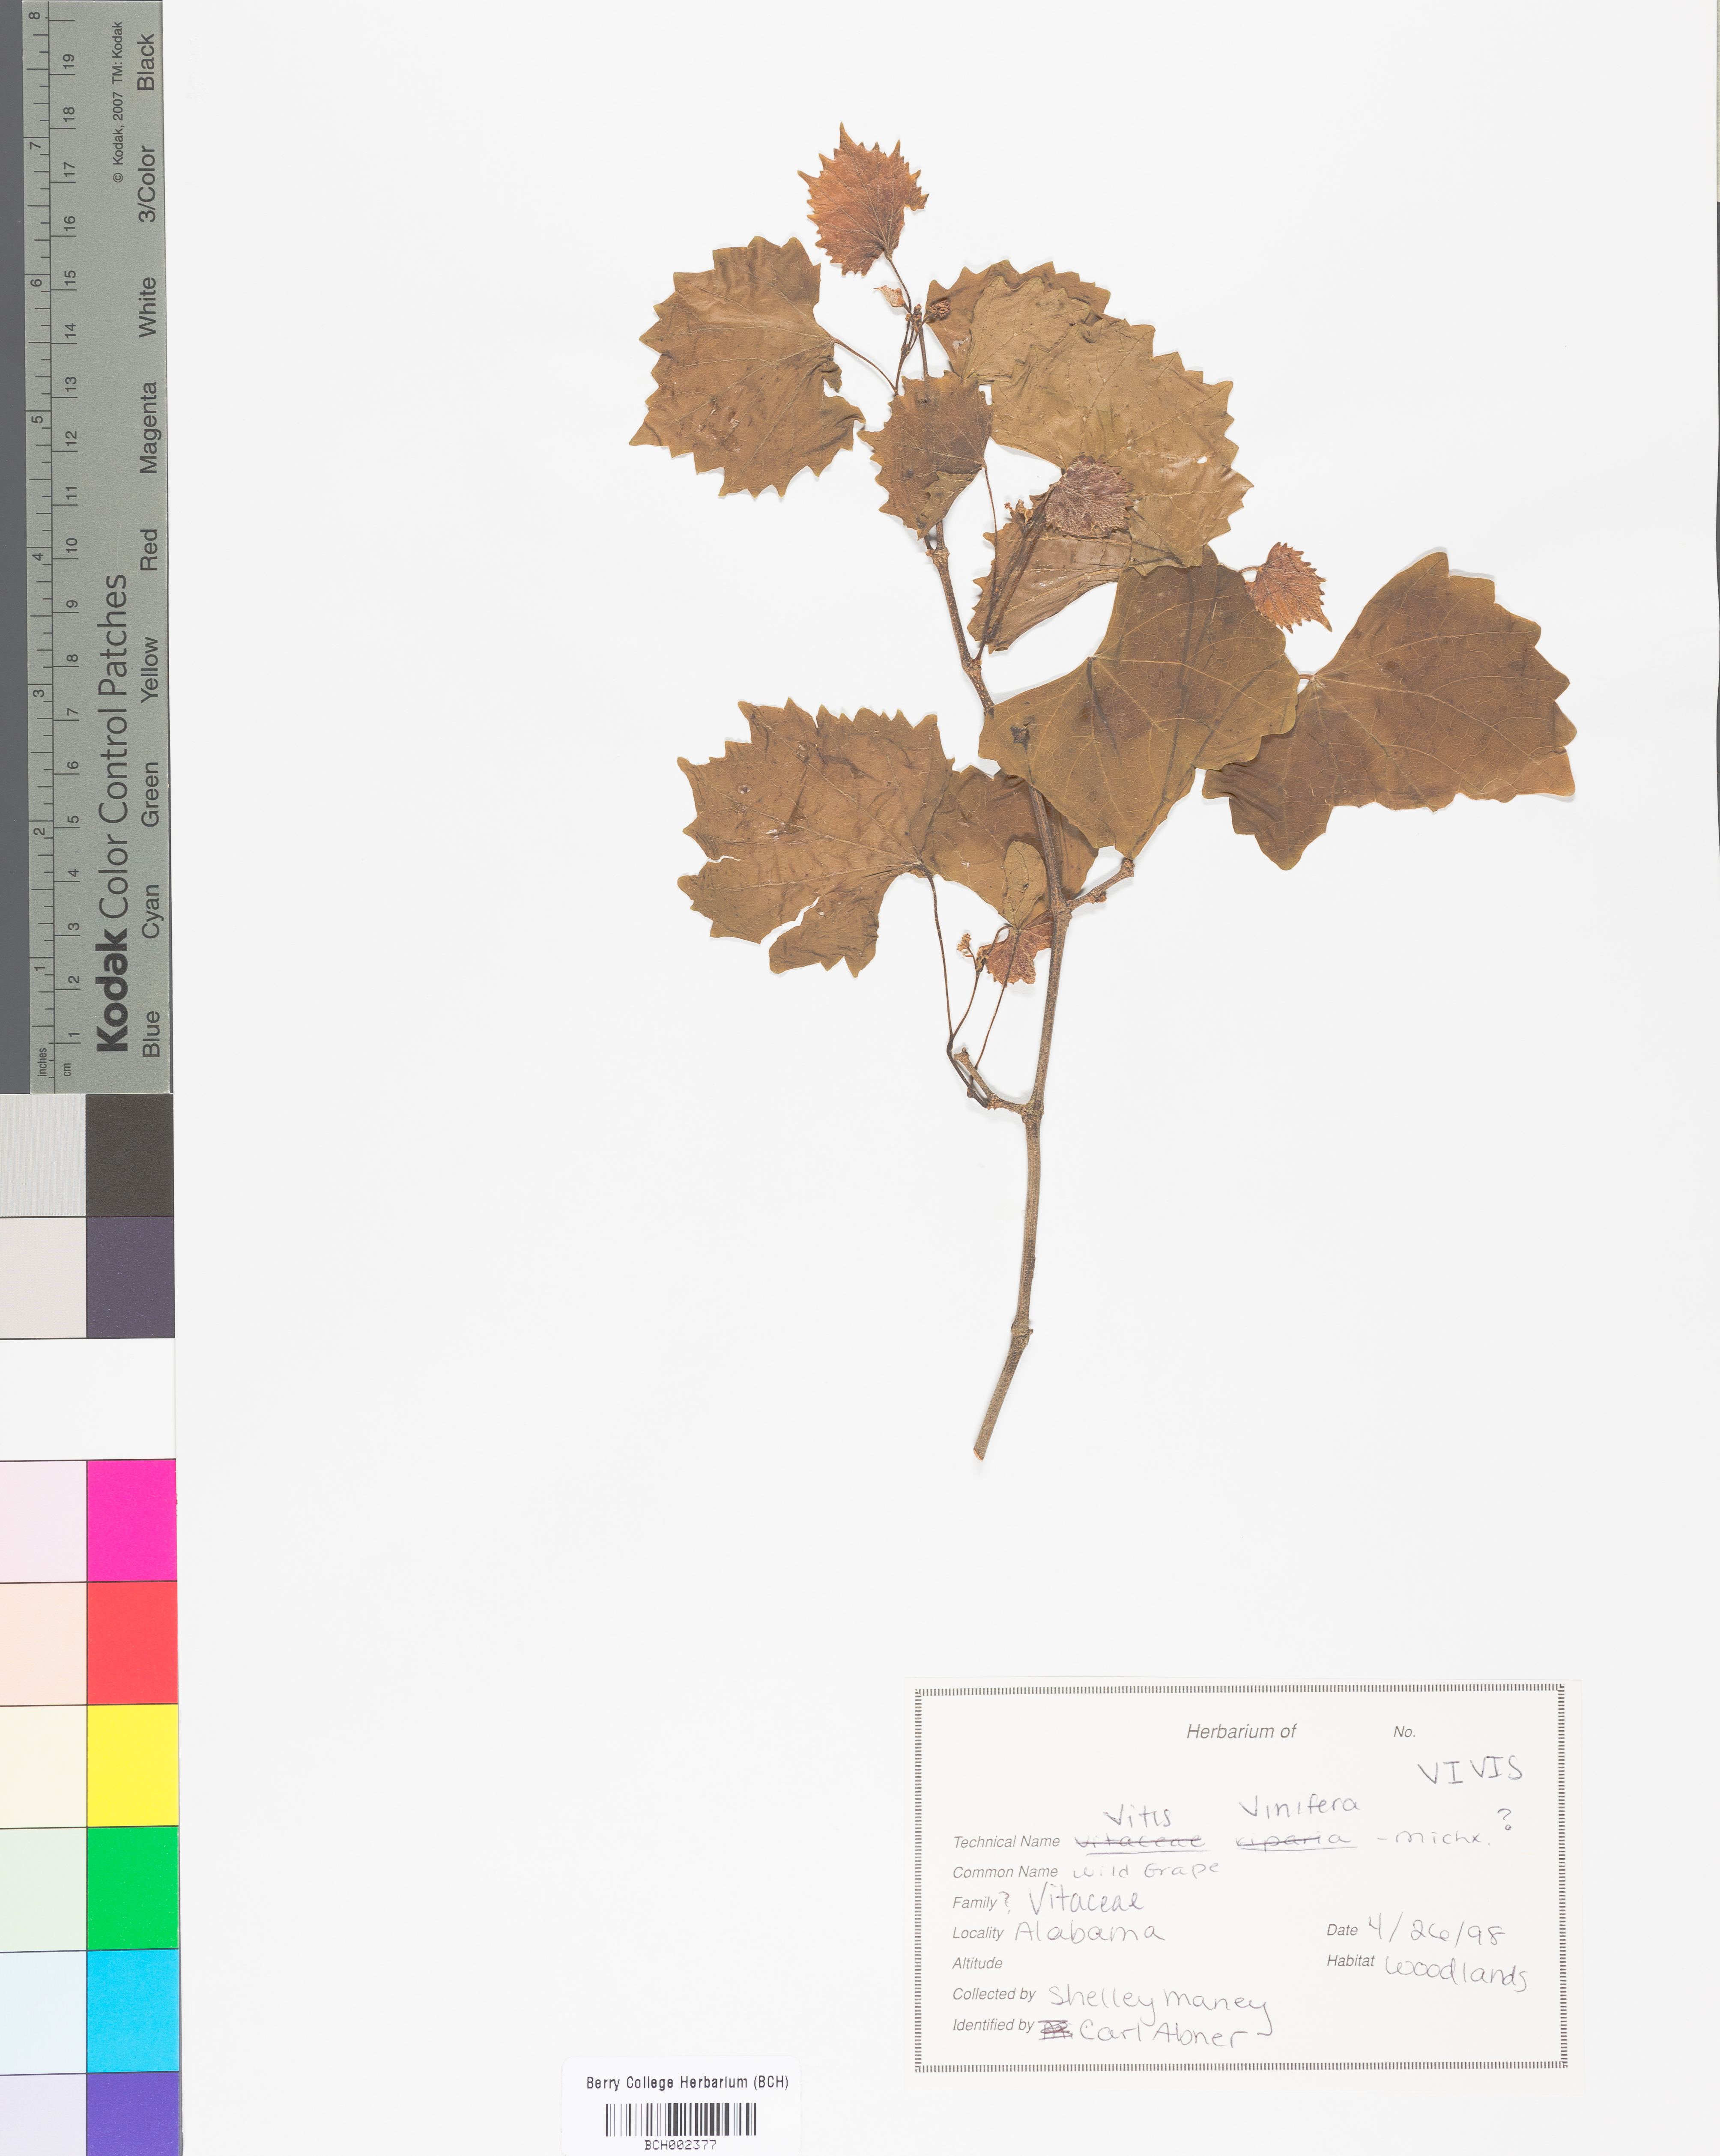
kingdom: Plantae
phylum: Tracheophyta
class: Magnoliopsida
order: Vitales
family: Vitaceae
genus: Vitis
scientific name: Vitis vinifera
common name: Grape-vine
